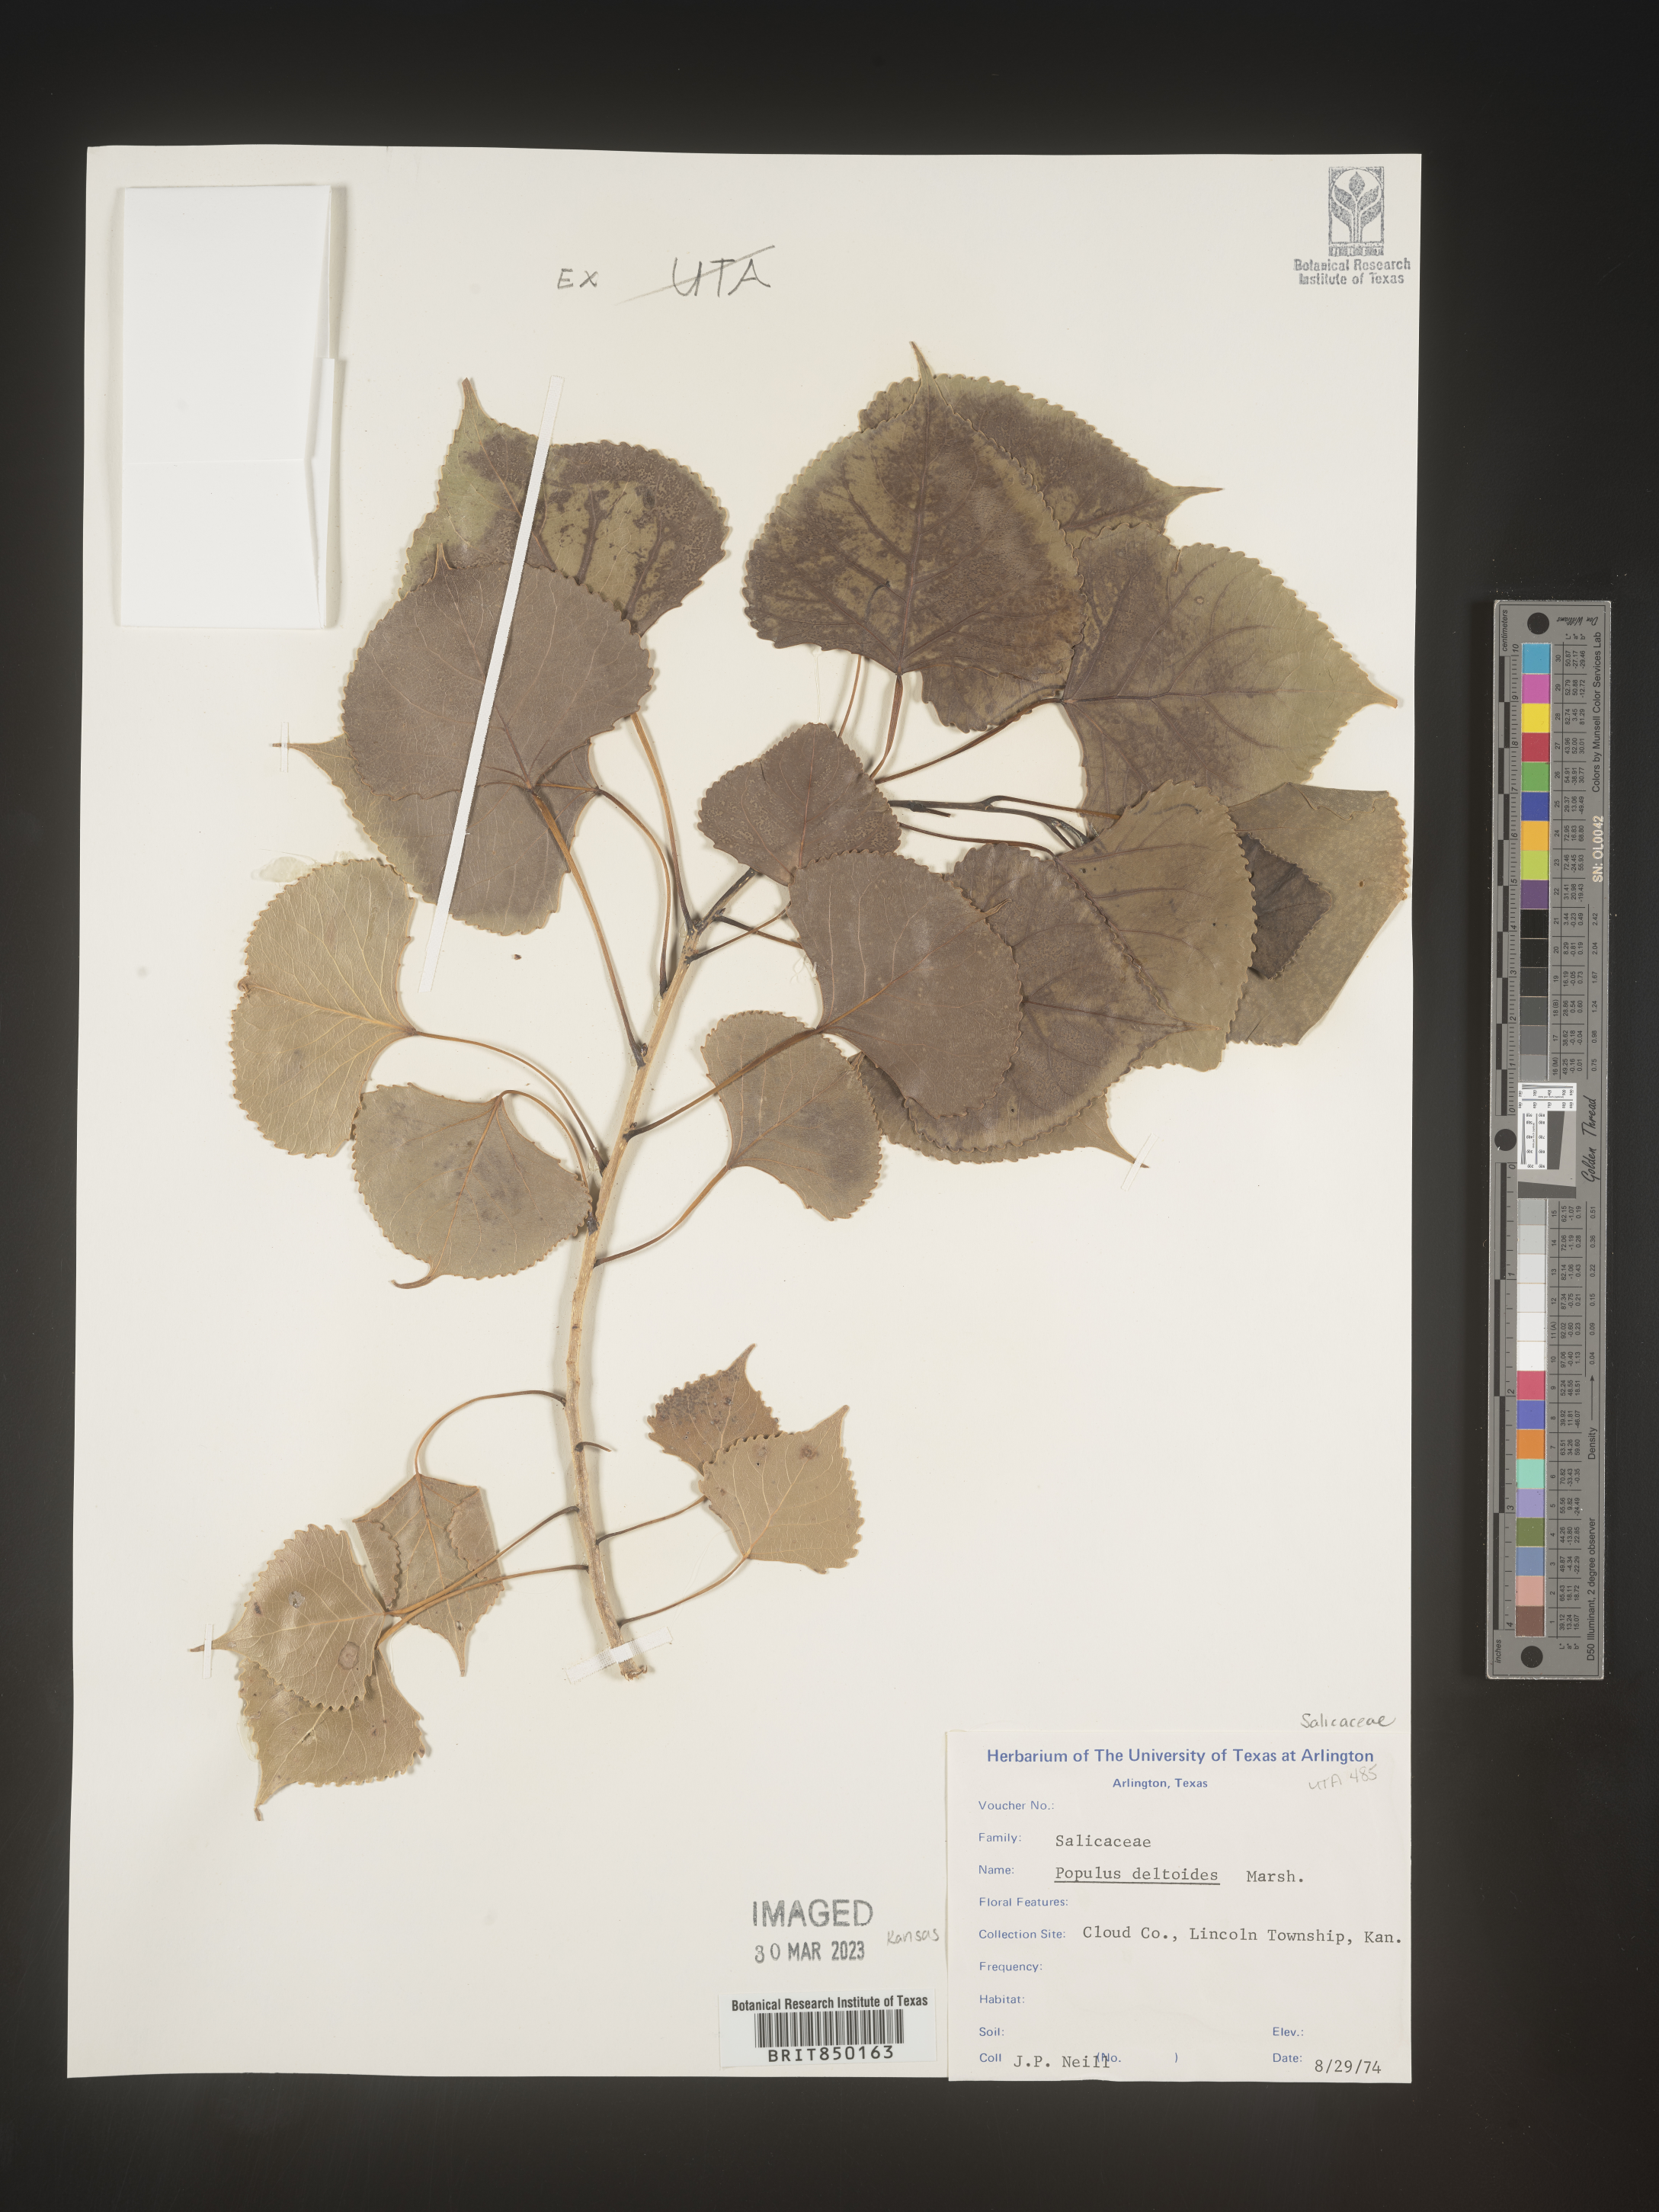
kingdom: Plantae
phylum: Tracheophyta
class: Magnoliopsida
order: Malpighiales
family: Salicaceae
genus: Populus
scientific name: Populus deltoides
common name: Eastern cottonwood
